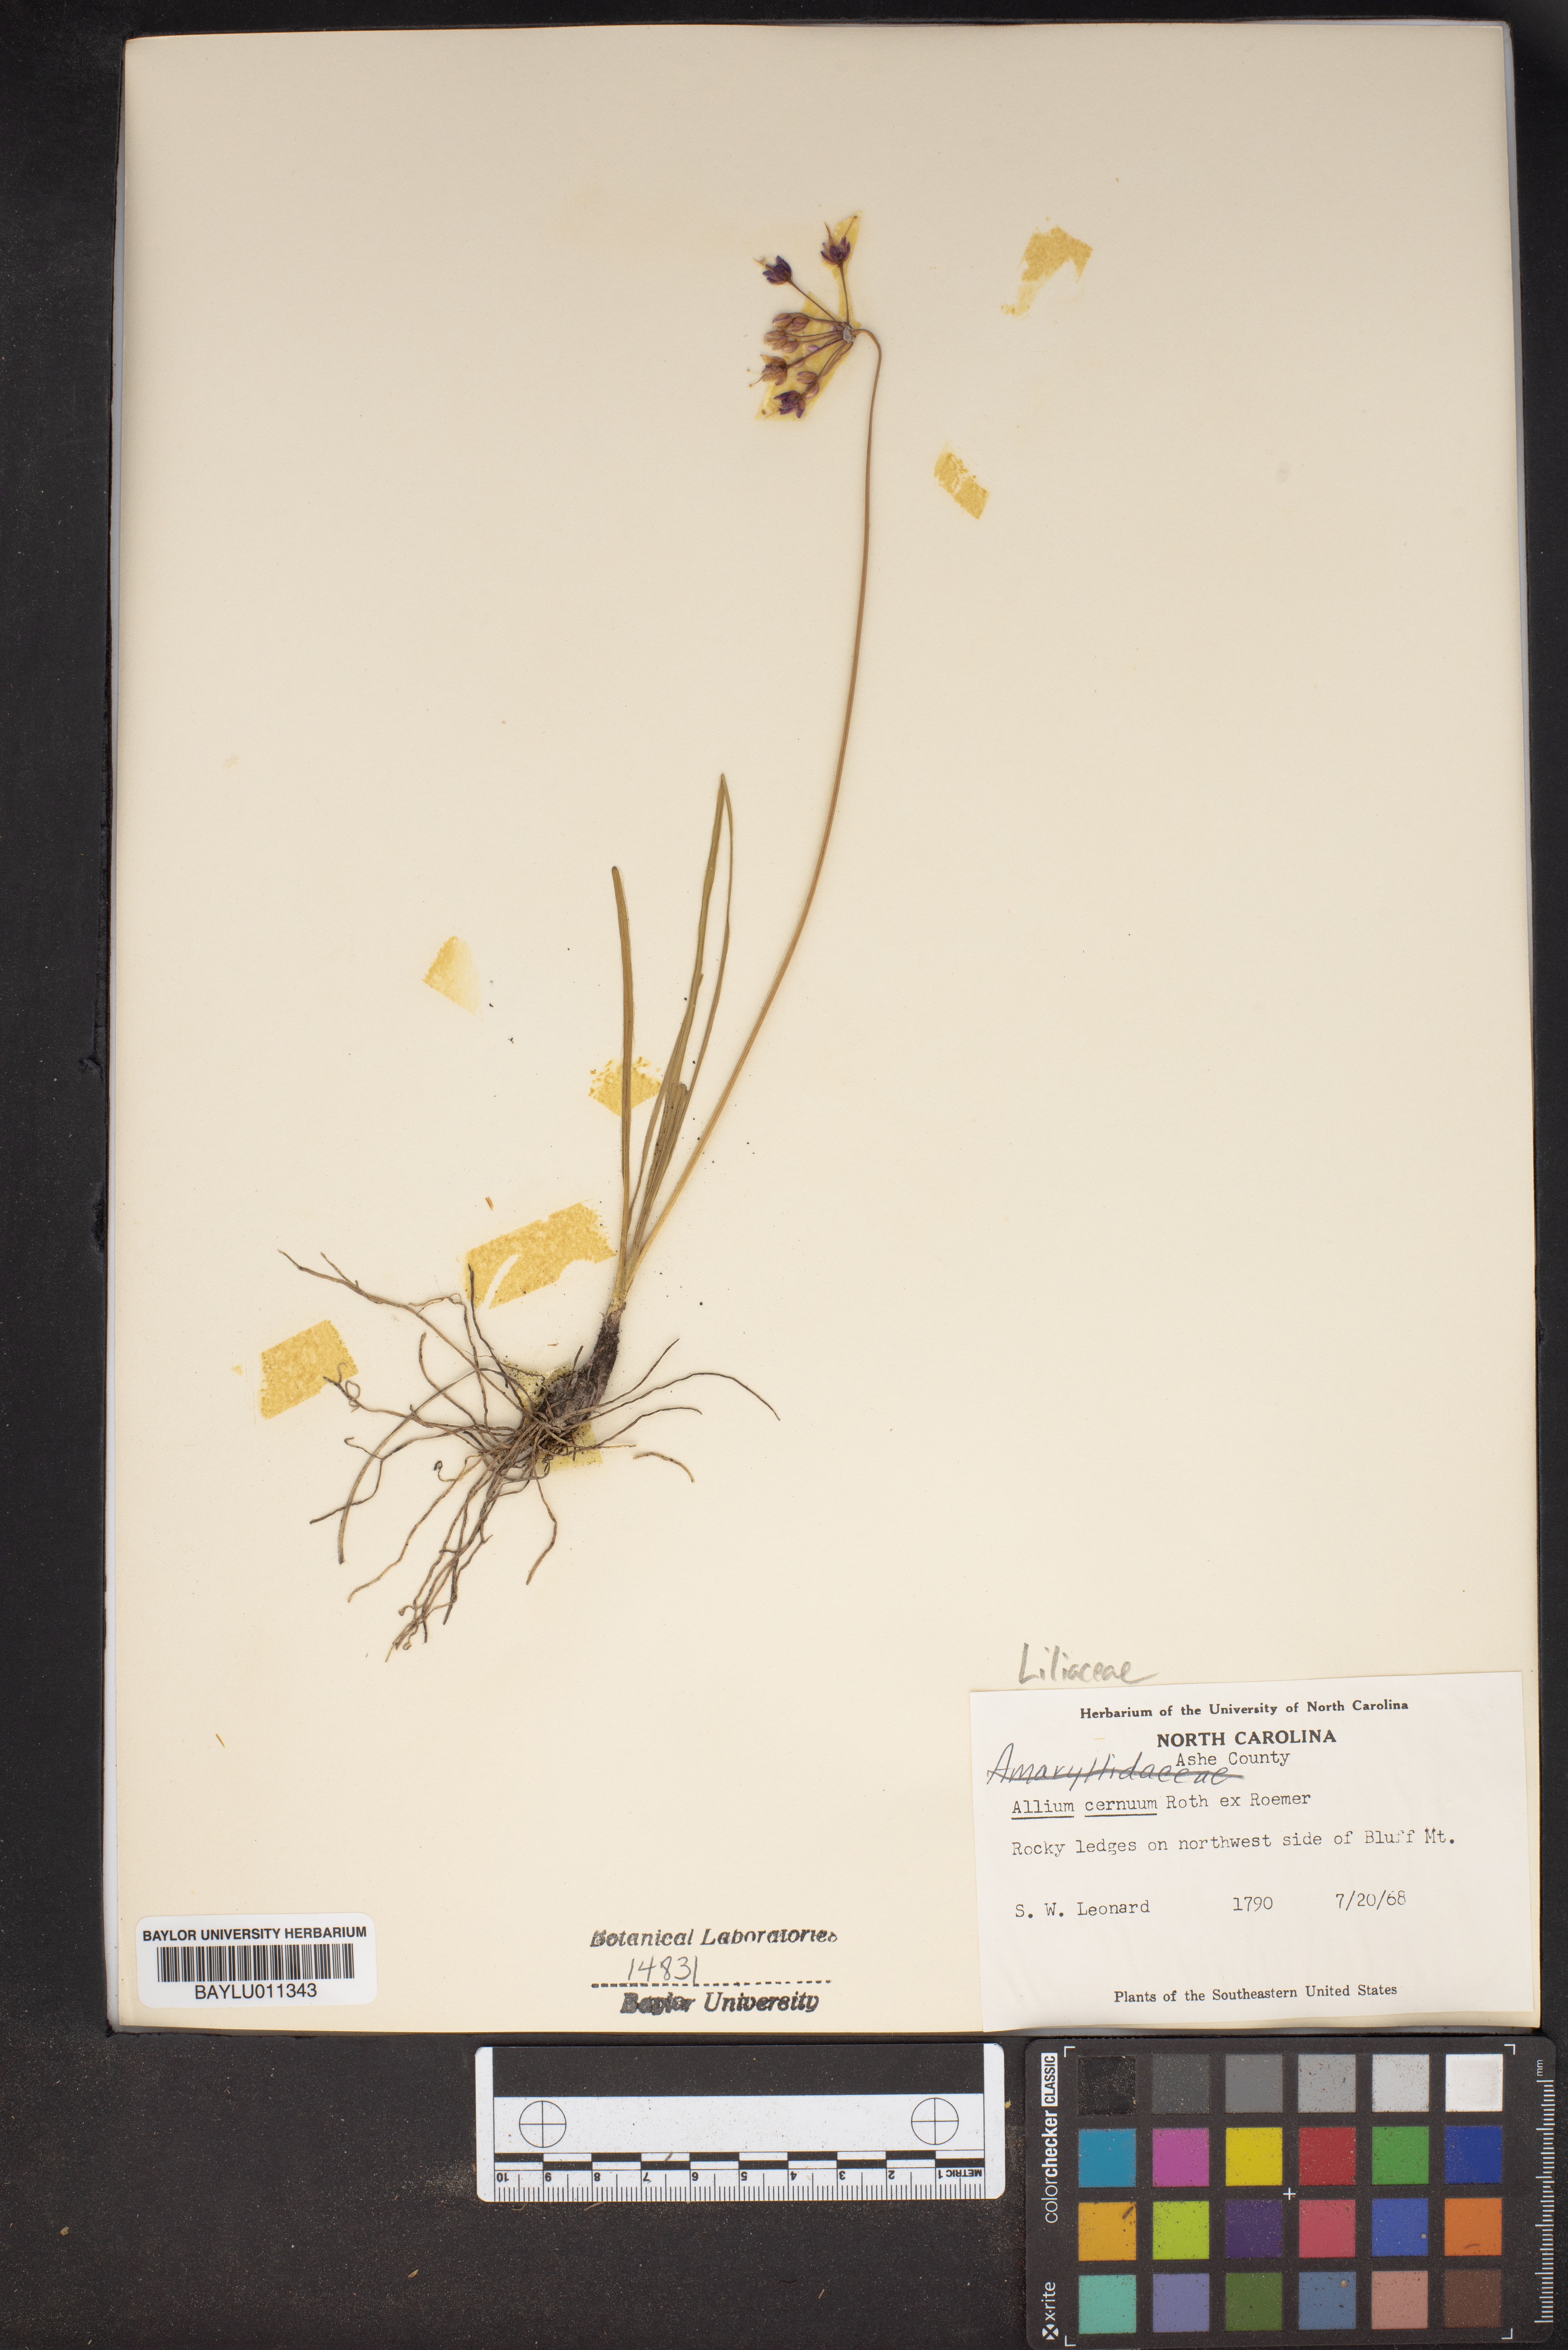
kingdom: Plantae
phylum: Tracheophyta
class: Liliopsida
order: Asparagales
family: Amaryllidaceae
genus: Allium
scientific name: Allium cernuum
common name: Nodding onion
